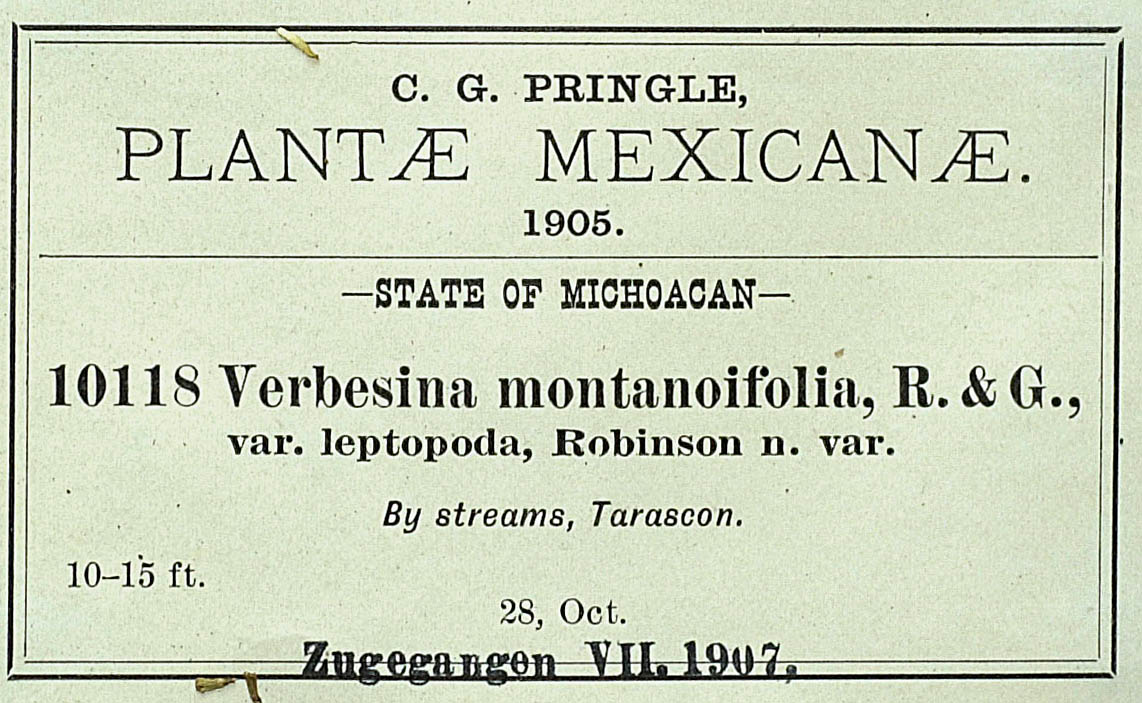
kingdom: Plantae
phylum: Tracheophyta
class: Magnoliopsida
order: Asterales
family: Asteraceae
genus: Verbesina
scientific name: Verbesina montanoifolia
